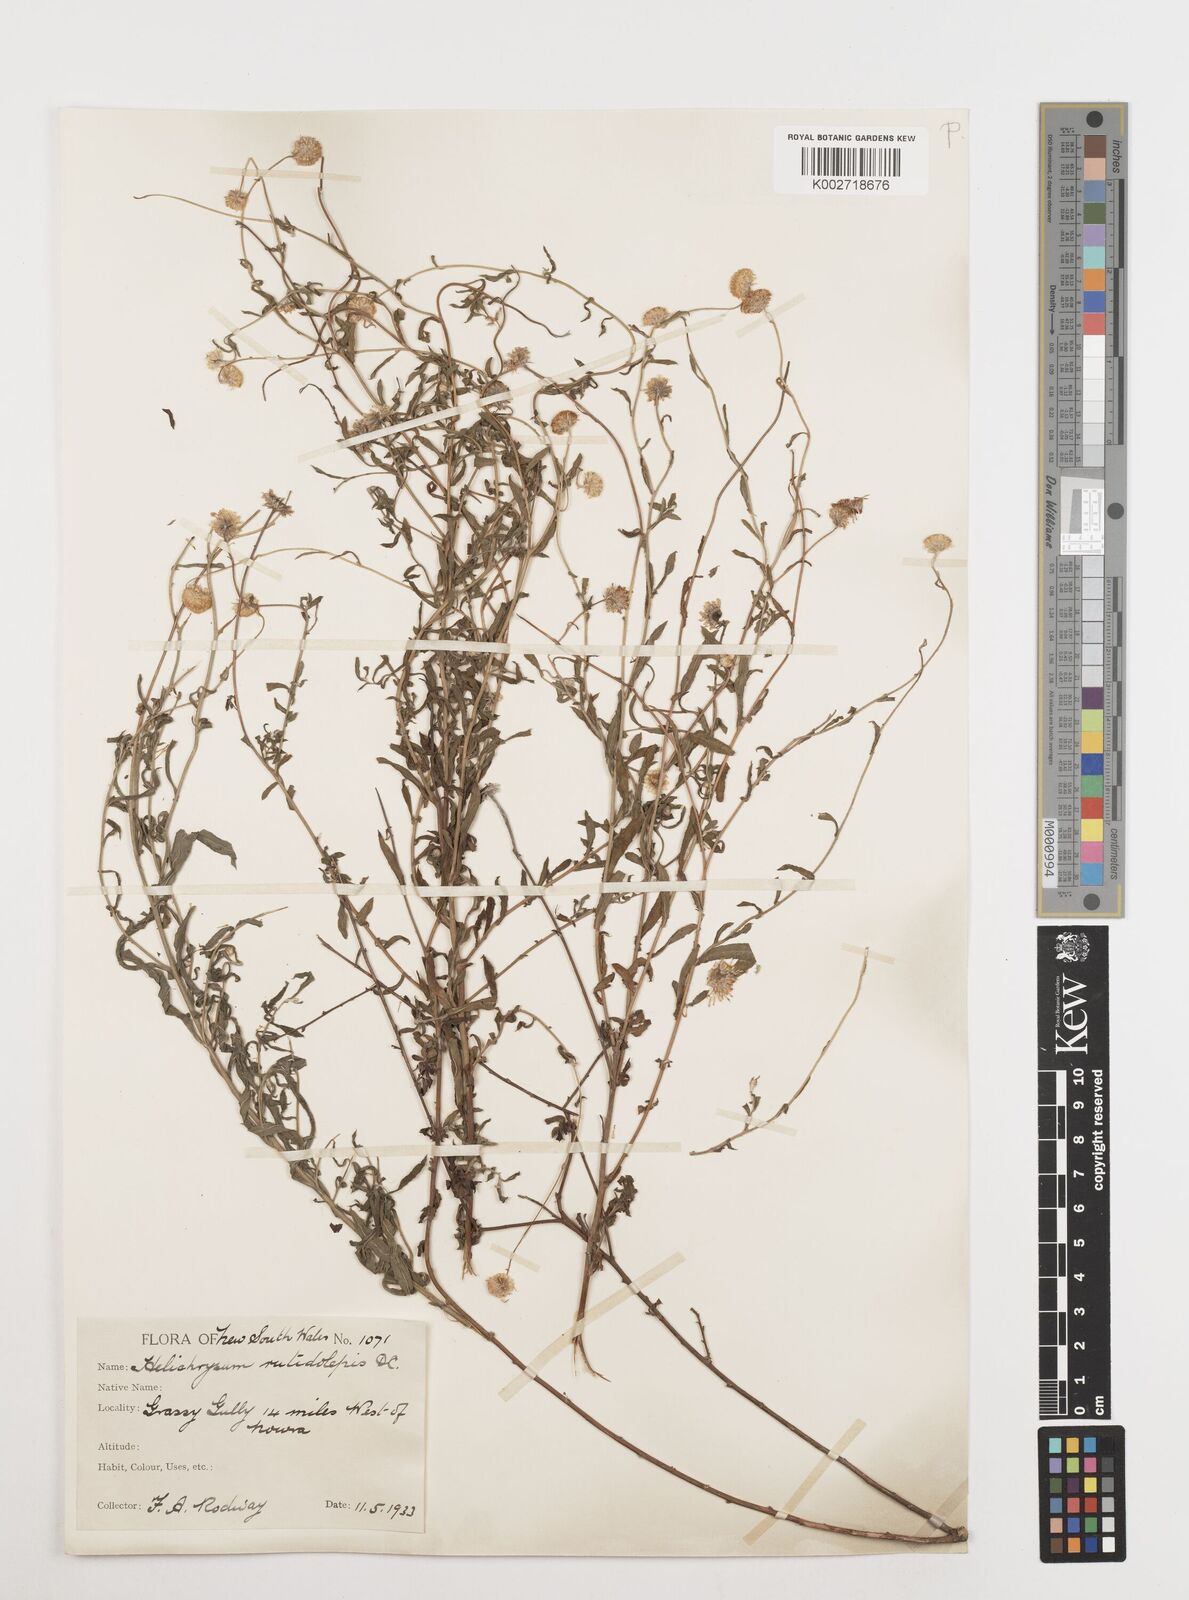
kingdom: Plantae
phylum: Tracheophyta
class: Magnoliopsida
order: Asterales
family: Asteraceae
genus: Coronidium
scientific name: Coronidium rutidolepis
